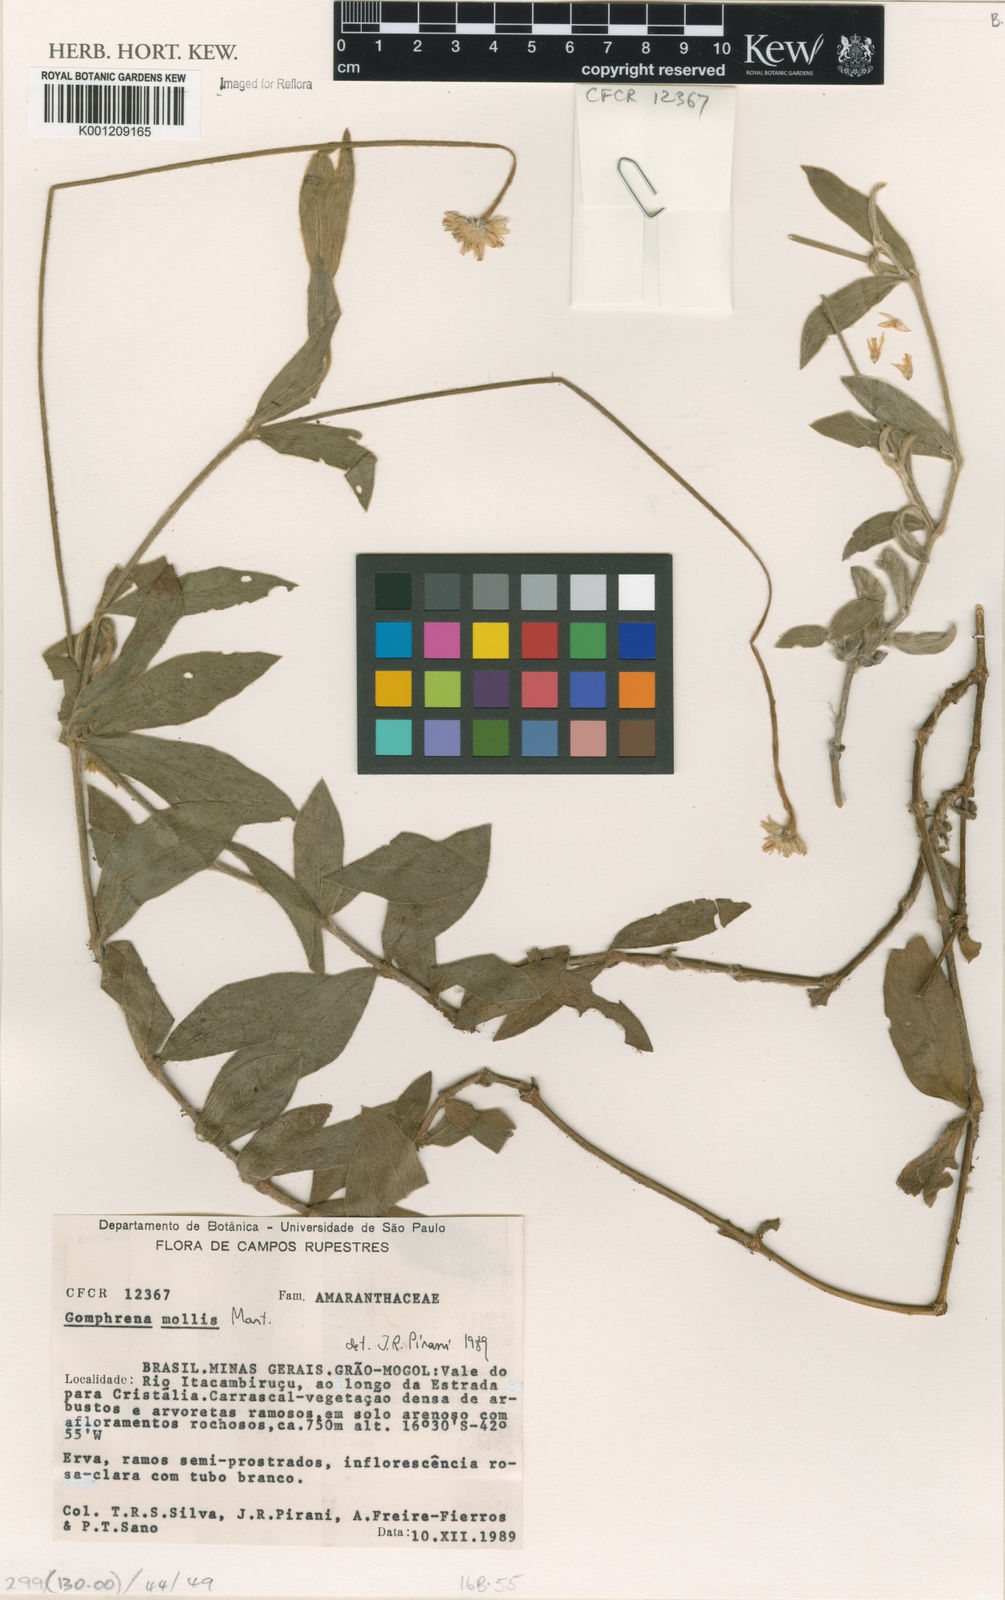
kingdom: Plantae
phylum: Tracheophyta
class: Magnoliopsida
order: Caryophyllales
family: Amaranthaceae
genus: Gomphrena
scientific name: Gomphrena mollis
